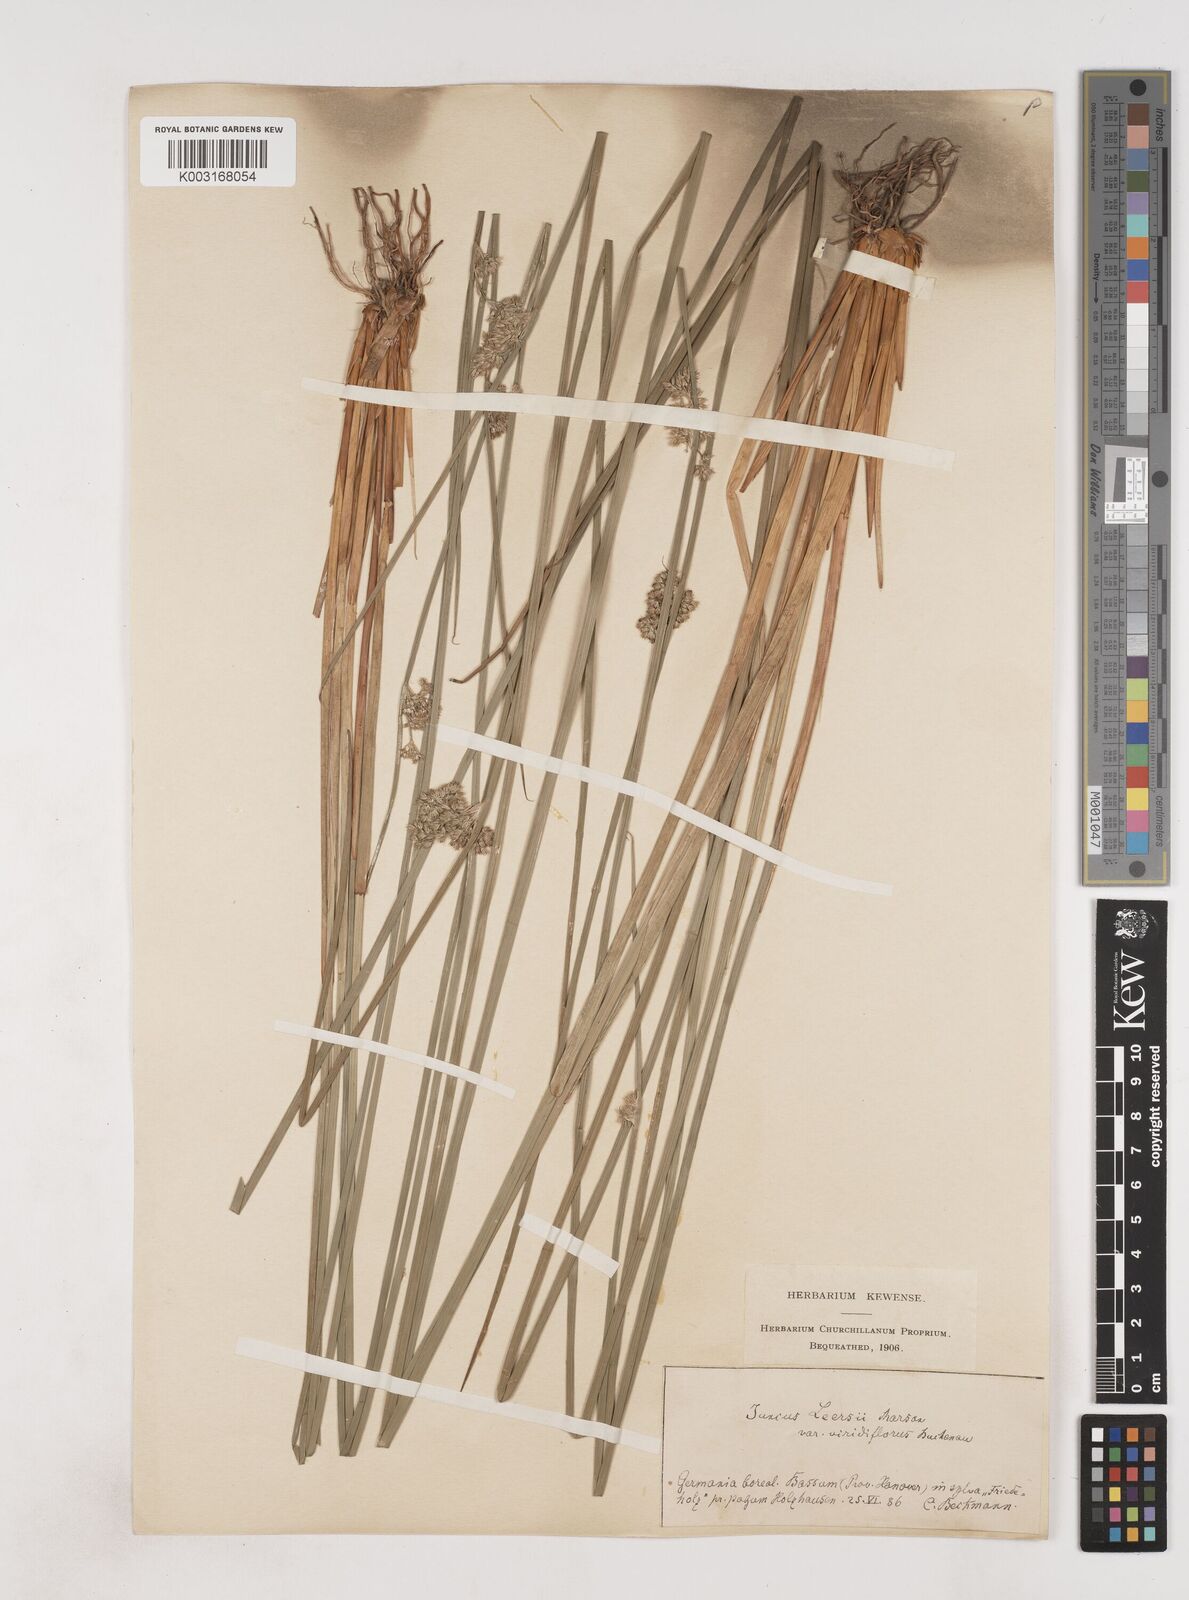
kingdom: Plantae
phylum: Tracheophyta
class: Liliopsida
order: Poales
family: Juncaceae
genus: Juncus
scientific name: Juncus conglomeratus
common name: Compact rush
